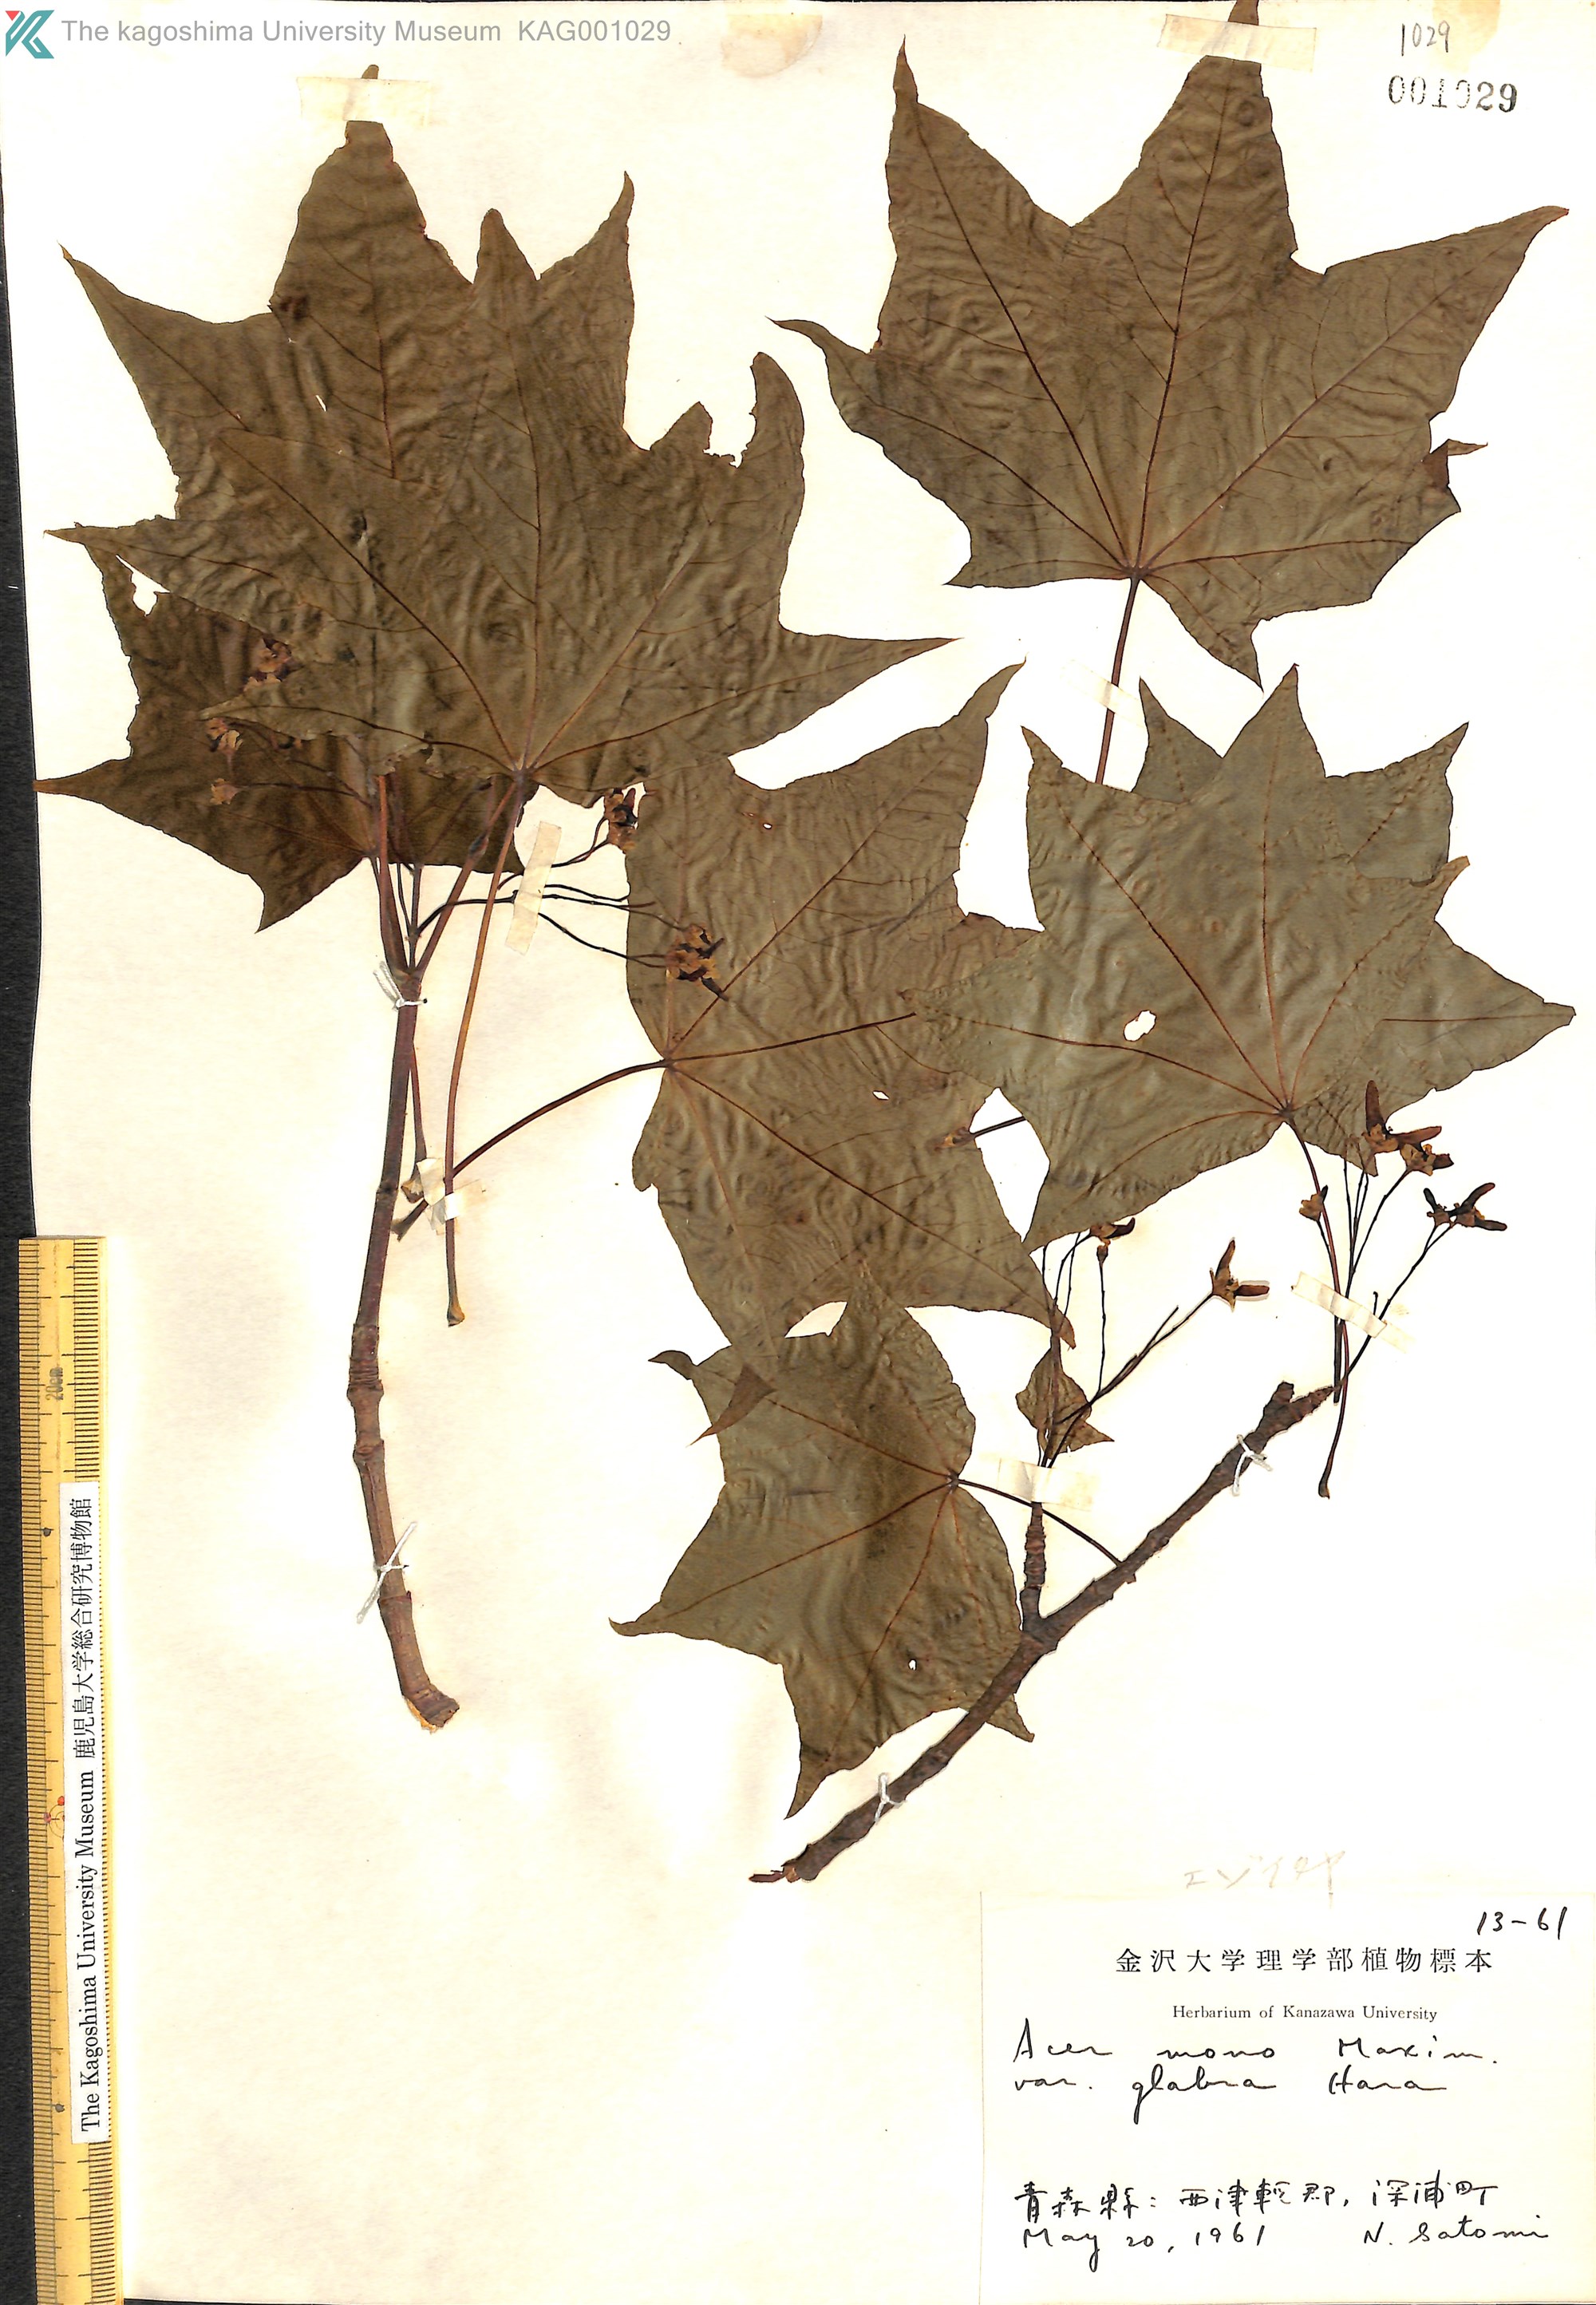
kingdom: Plantae
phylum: Tracheophyta
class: Magnoliopsida
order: Sapindales
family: Sapindaceae
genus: Acer
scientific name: Acer pictum
